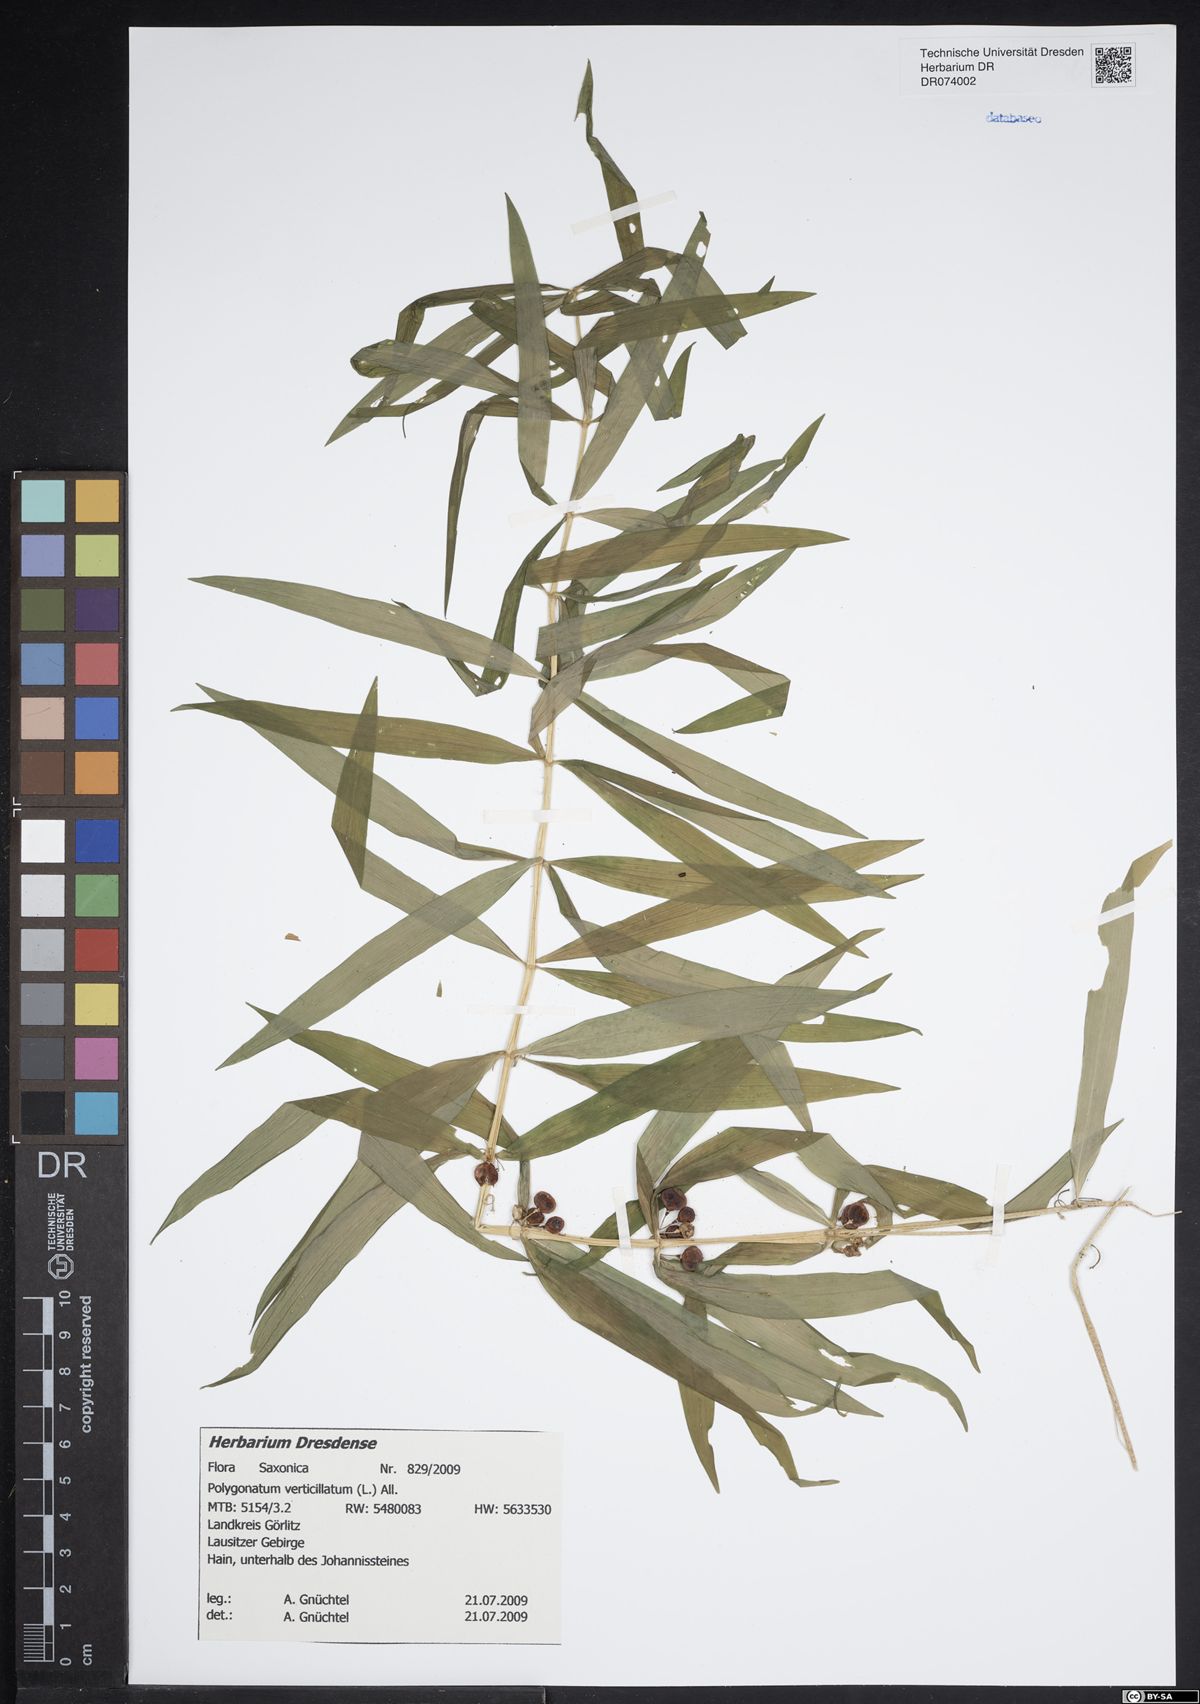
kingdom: Plantae
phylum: Tracheophyta
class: Liliopsida
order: Asparagales
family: Asparagaceae
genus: Polygonatum
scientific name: Polygonatum verticillatum
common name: Whorled solomon's-seal
